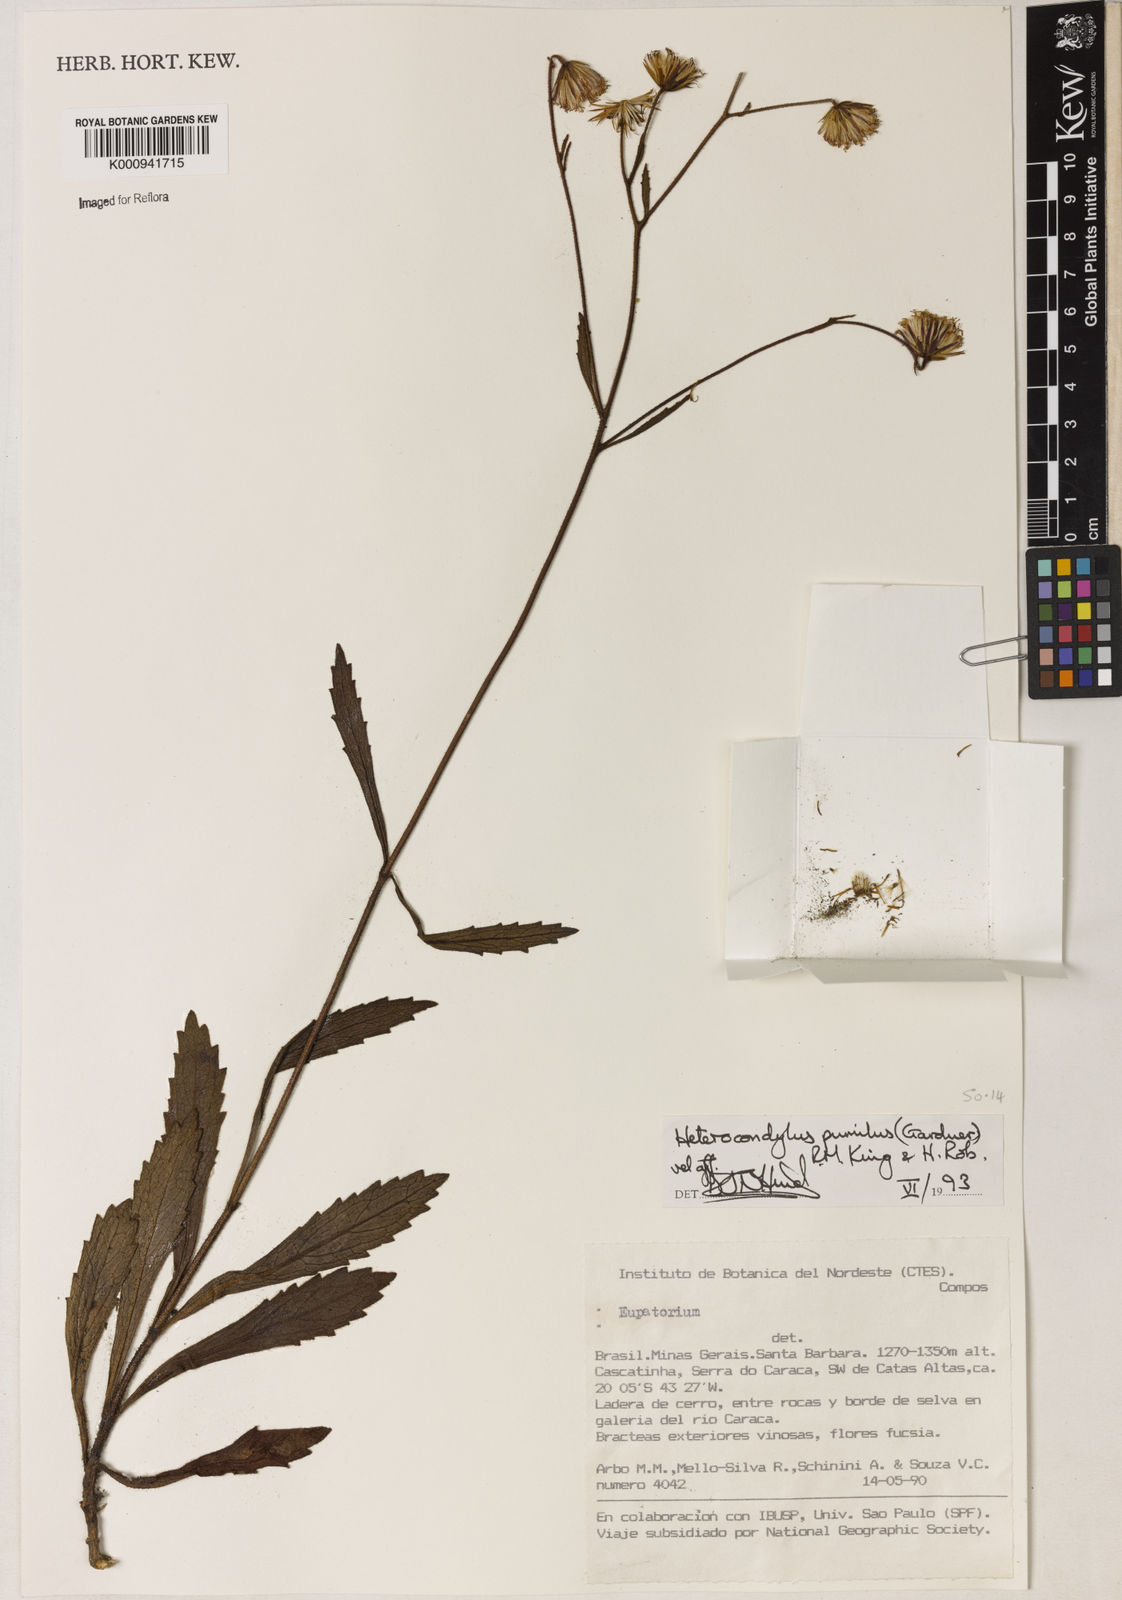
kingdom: Plantae
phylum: Tracheophyta
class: Magnoliopsida
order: Asterales
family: Asteraceae
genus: Heterocondylus
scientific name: Heterocondylus pumilus
